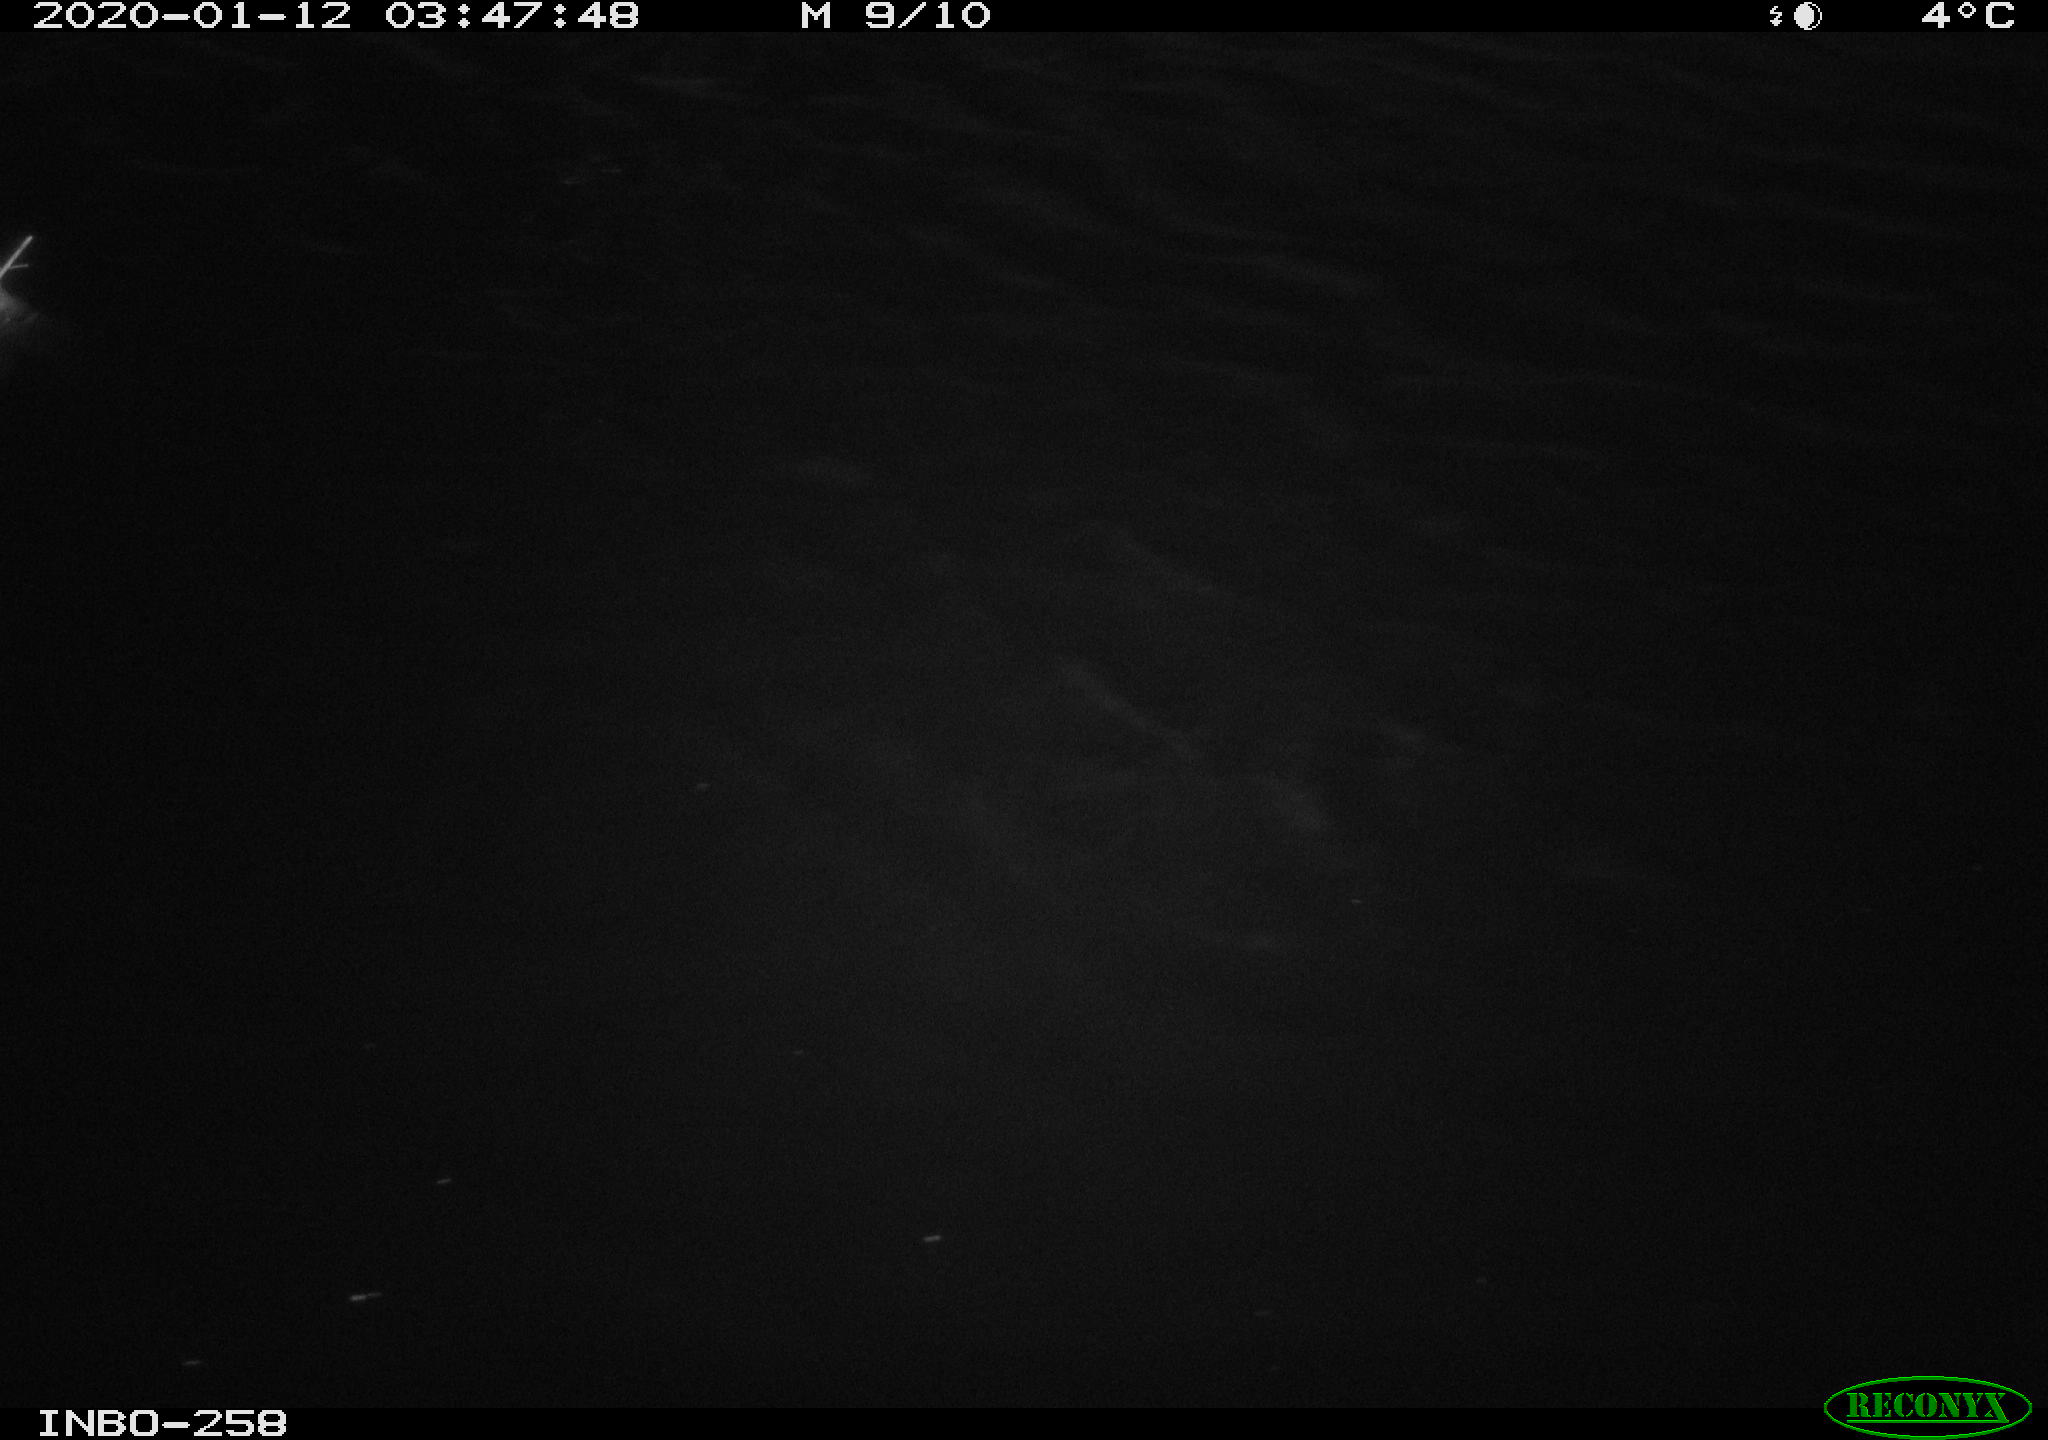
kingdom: Animalia
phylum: Chordata
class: Aves
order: Anseriformes
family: Anatidae
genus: Anas
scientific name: Anas platyrhynchos
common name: Mallard
